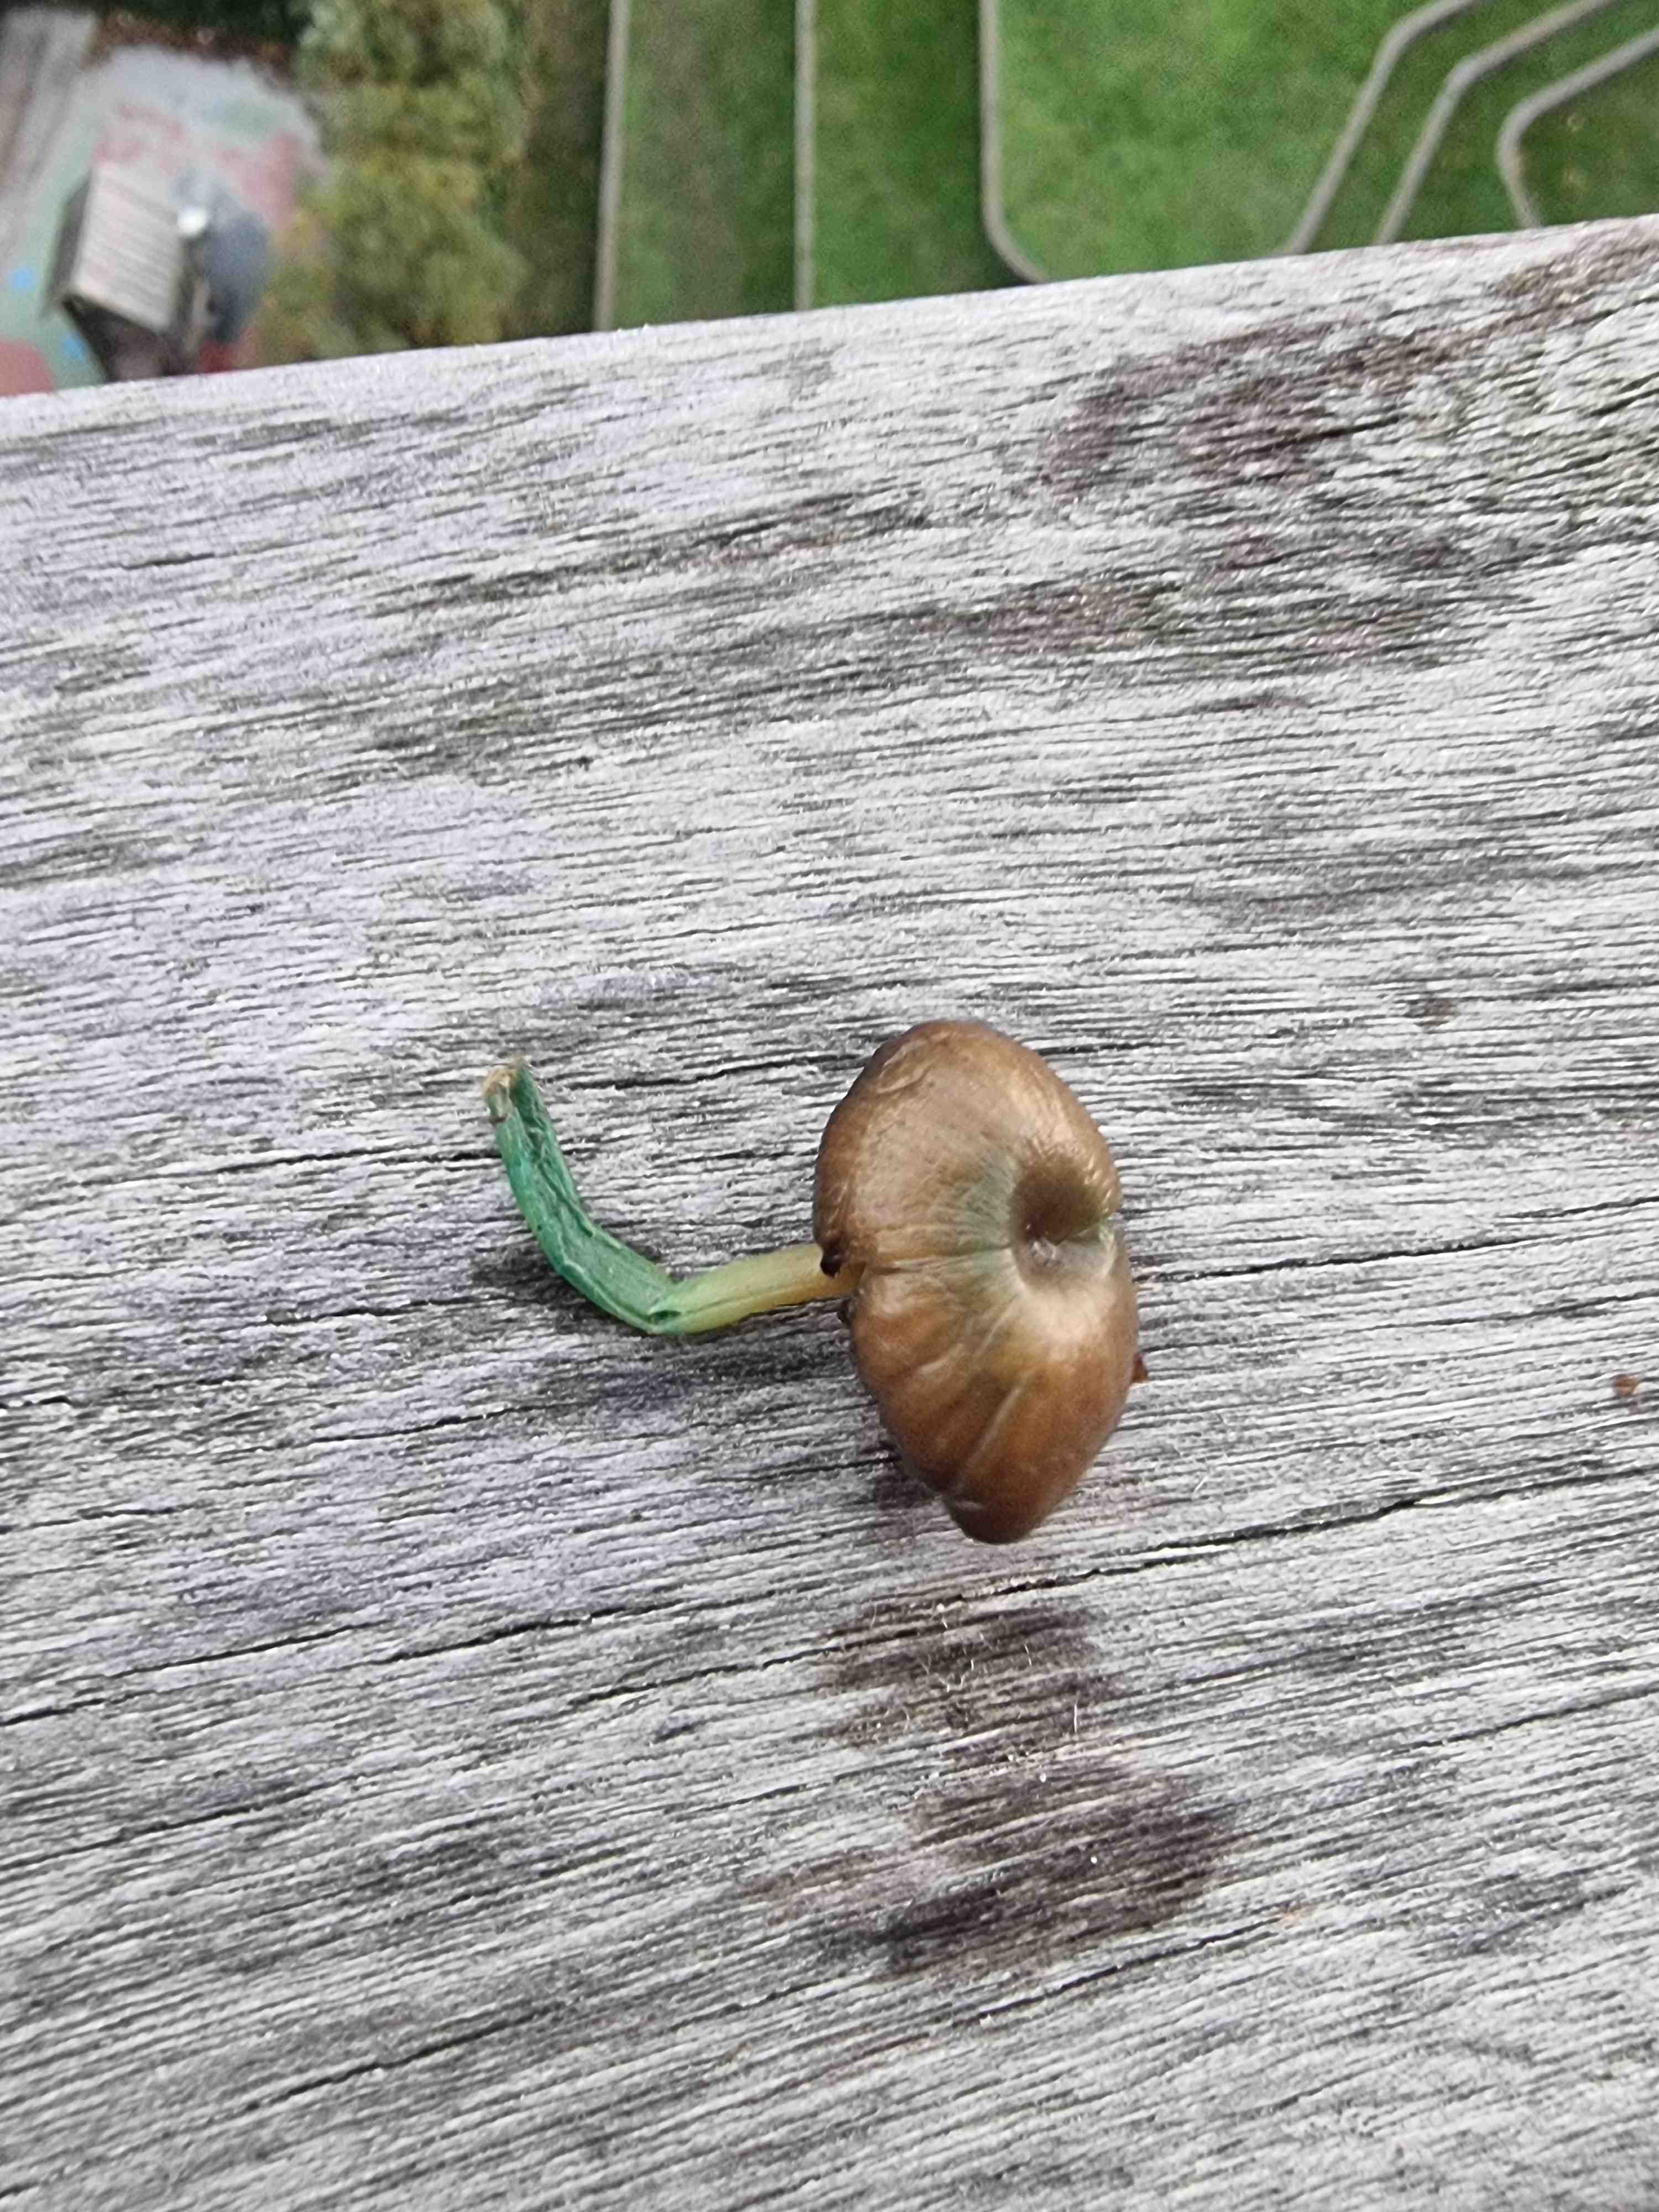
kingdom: Fungi
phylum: Basidiomycota
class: Agaricomycetes
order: Agaricales
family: Entolomataceae
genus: Entoloma
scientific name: Entoloma incanum
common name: grøngul rødblad
